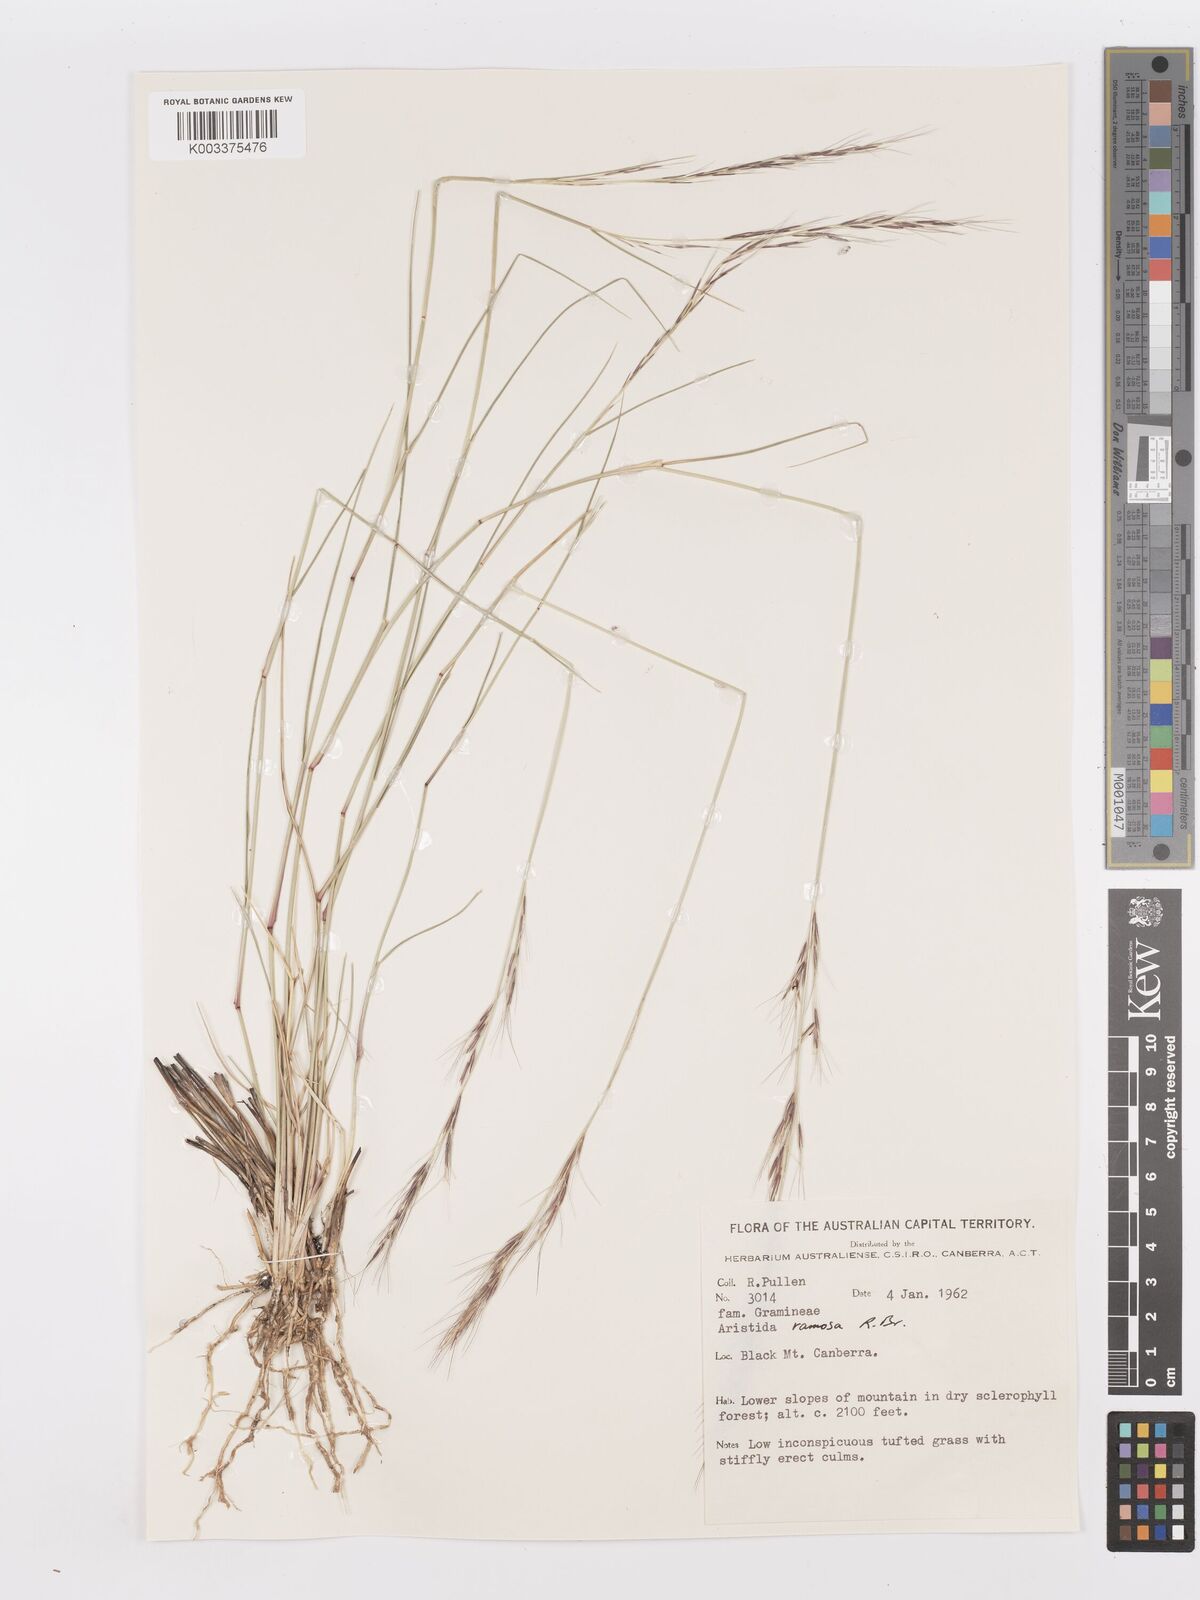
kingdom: Plantae
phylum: Tracheophyta
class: Liliopsida
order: Poales
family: Poaceae
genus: Aristida
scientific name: Aristida ramosa
